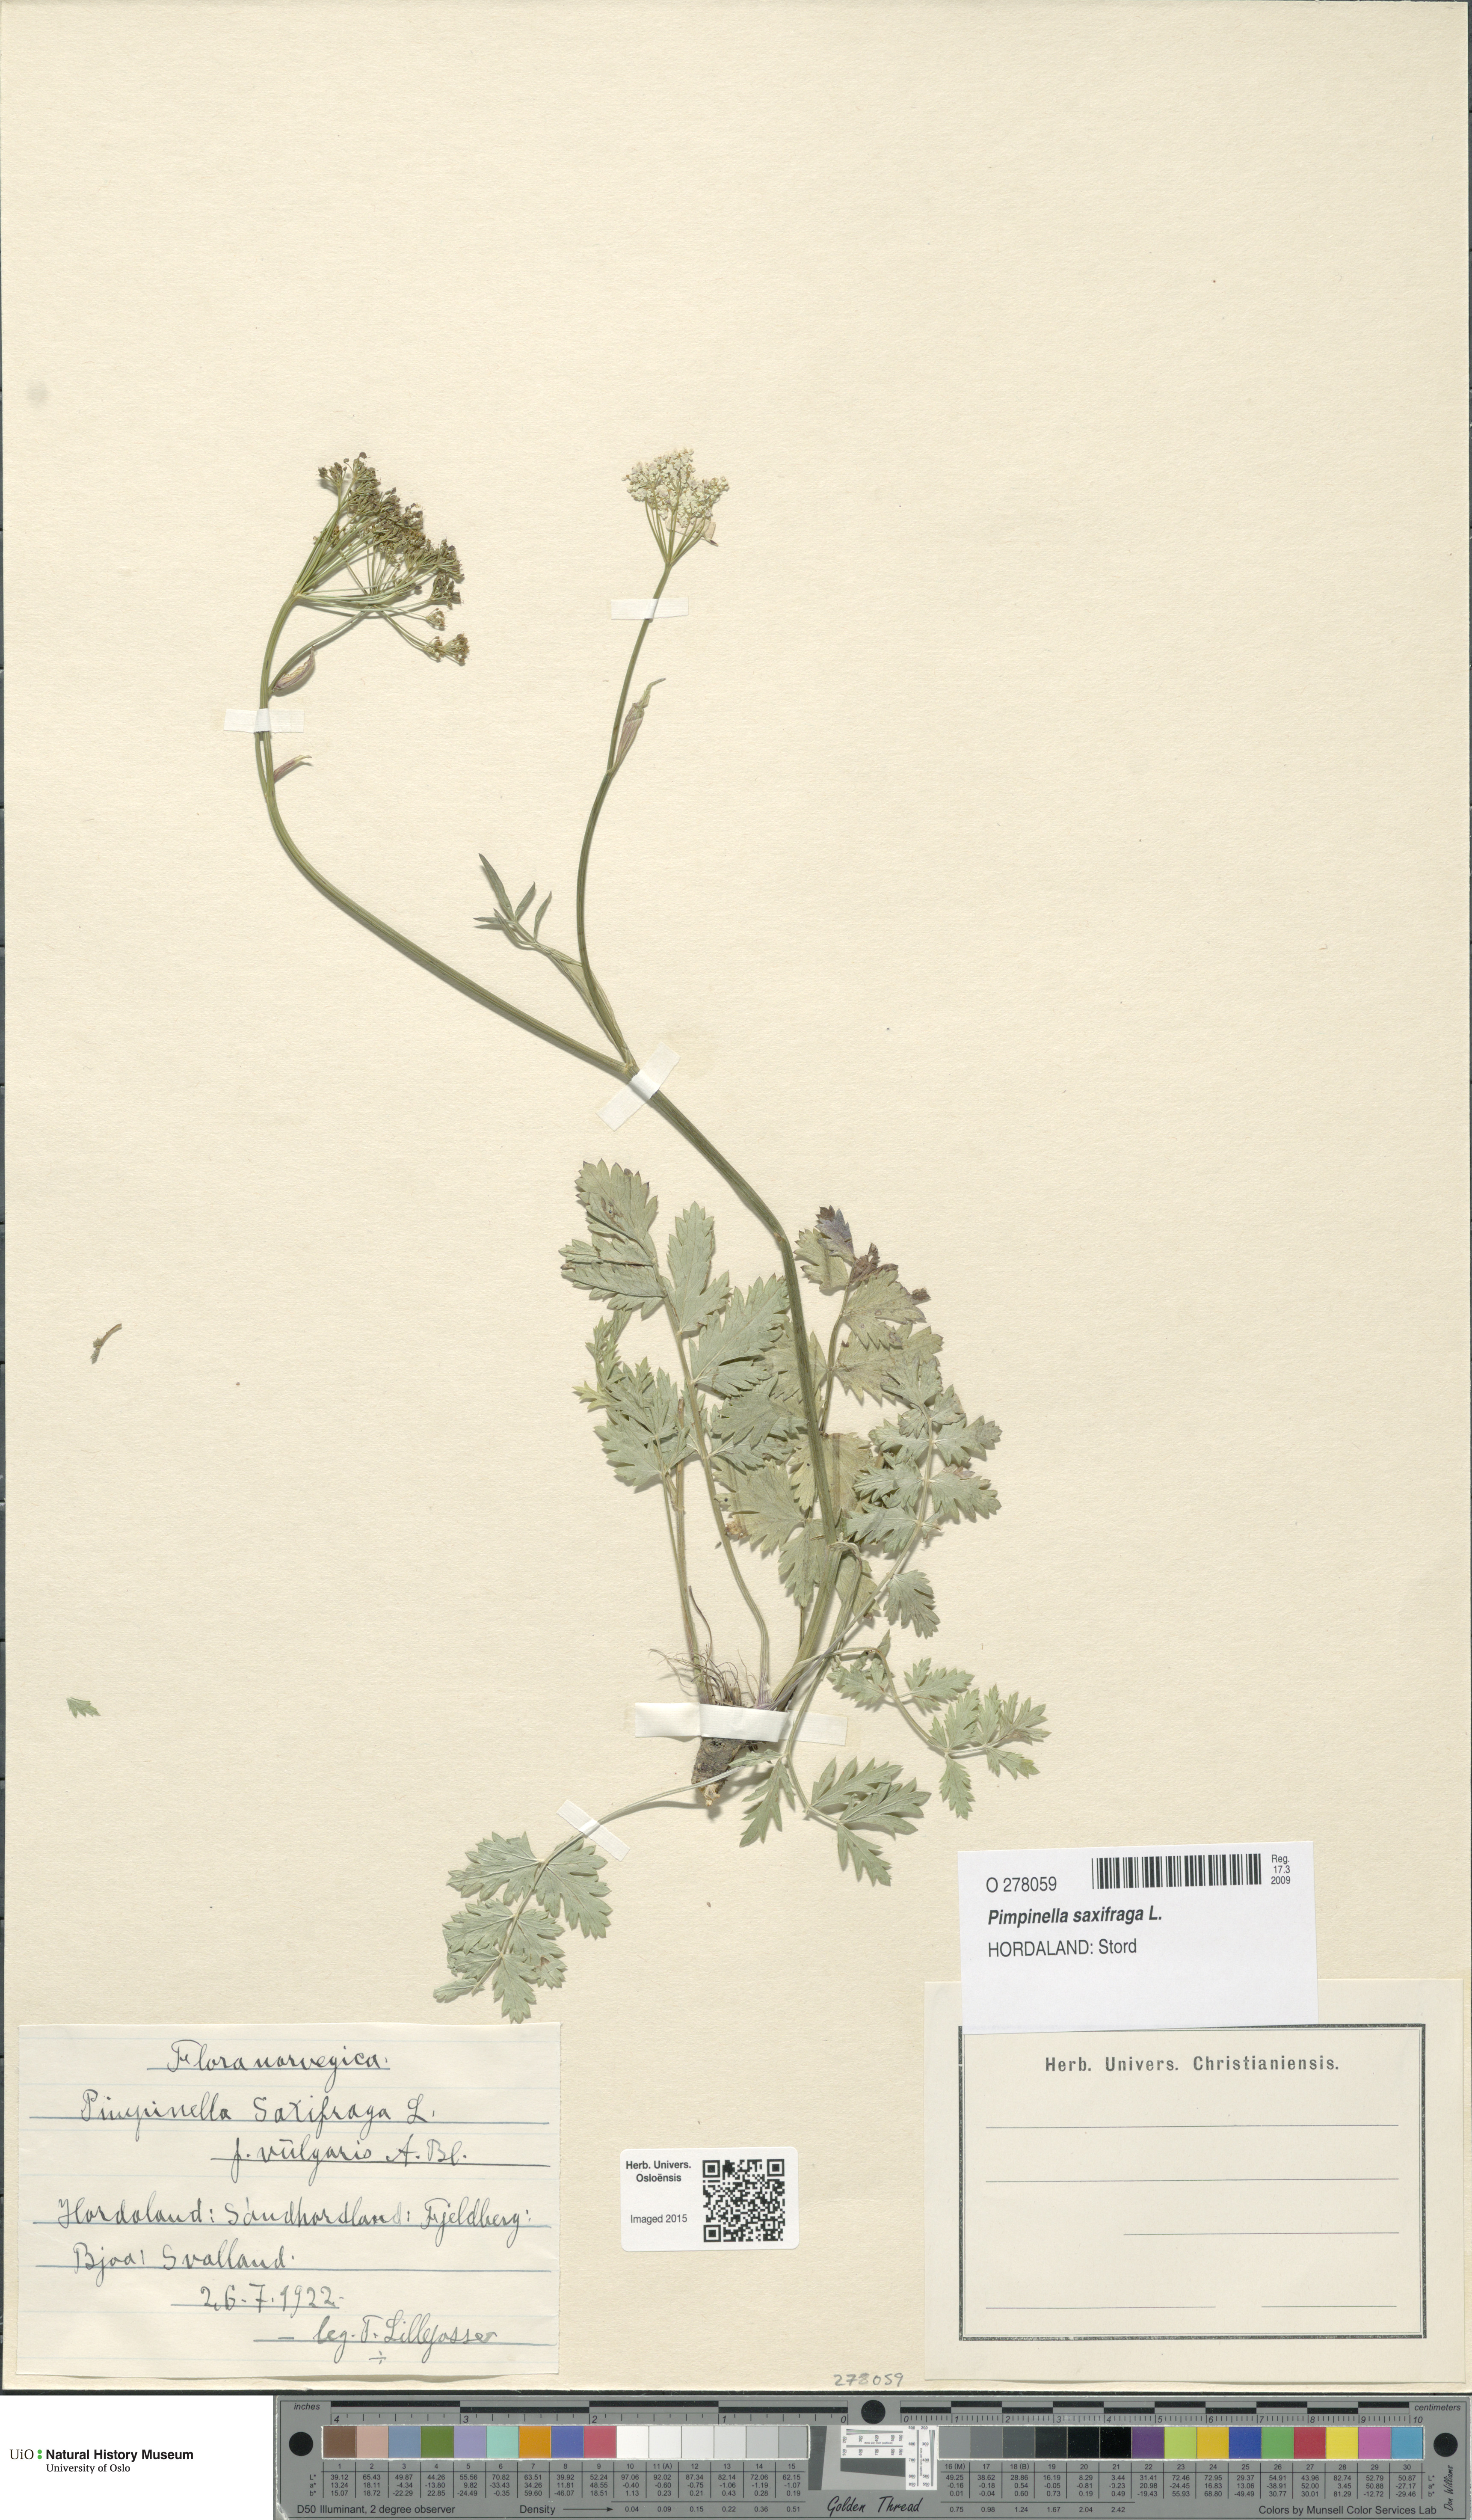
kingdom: Plantae
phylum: Tracheophyta
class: Magnoliopsida
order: Apiales
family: Apiaceae
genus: Pimpinella
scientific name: Pimpinella saxifraga
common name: Burnet-saxifrage
